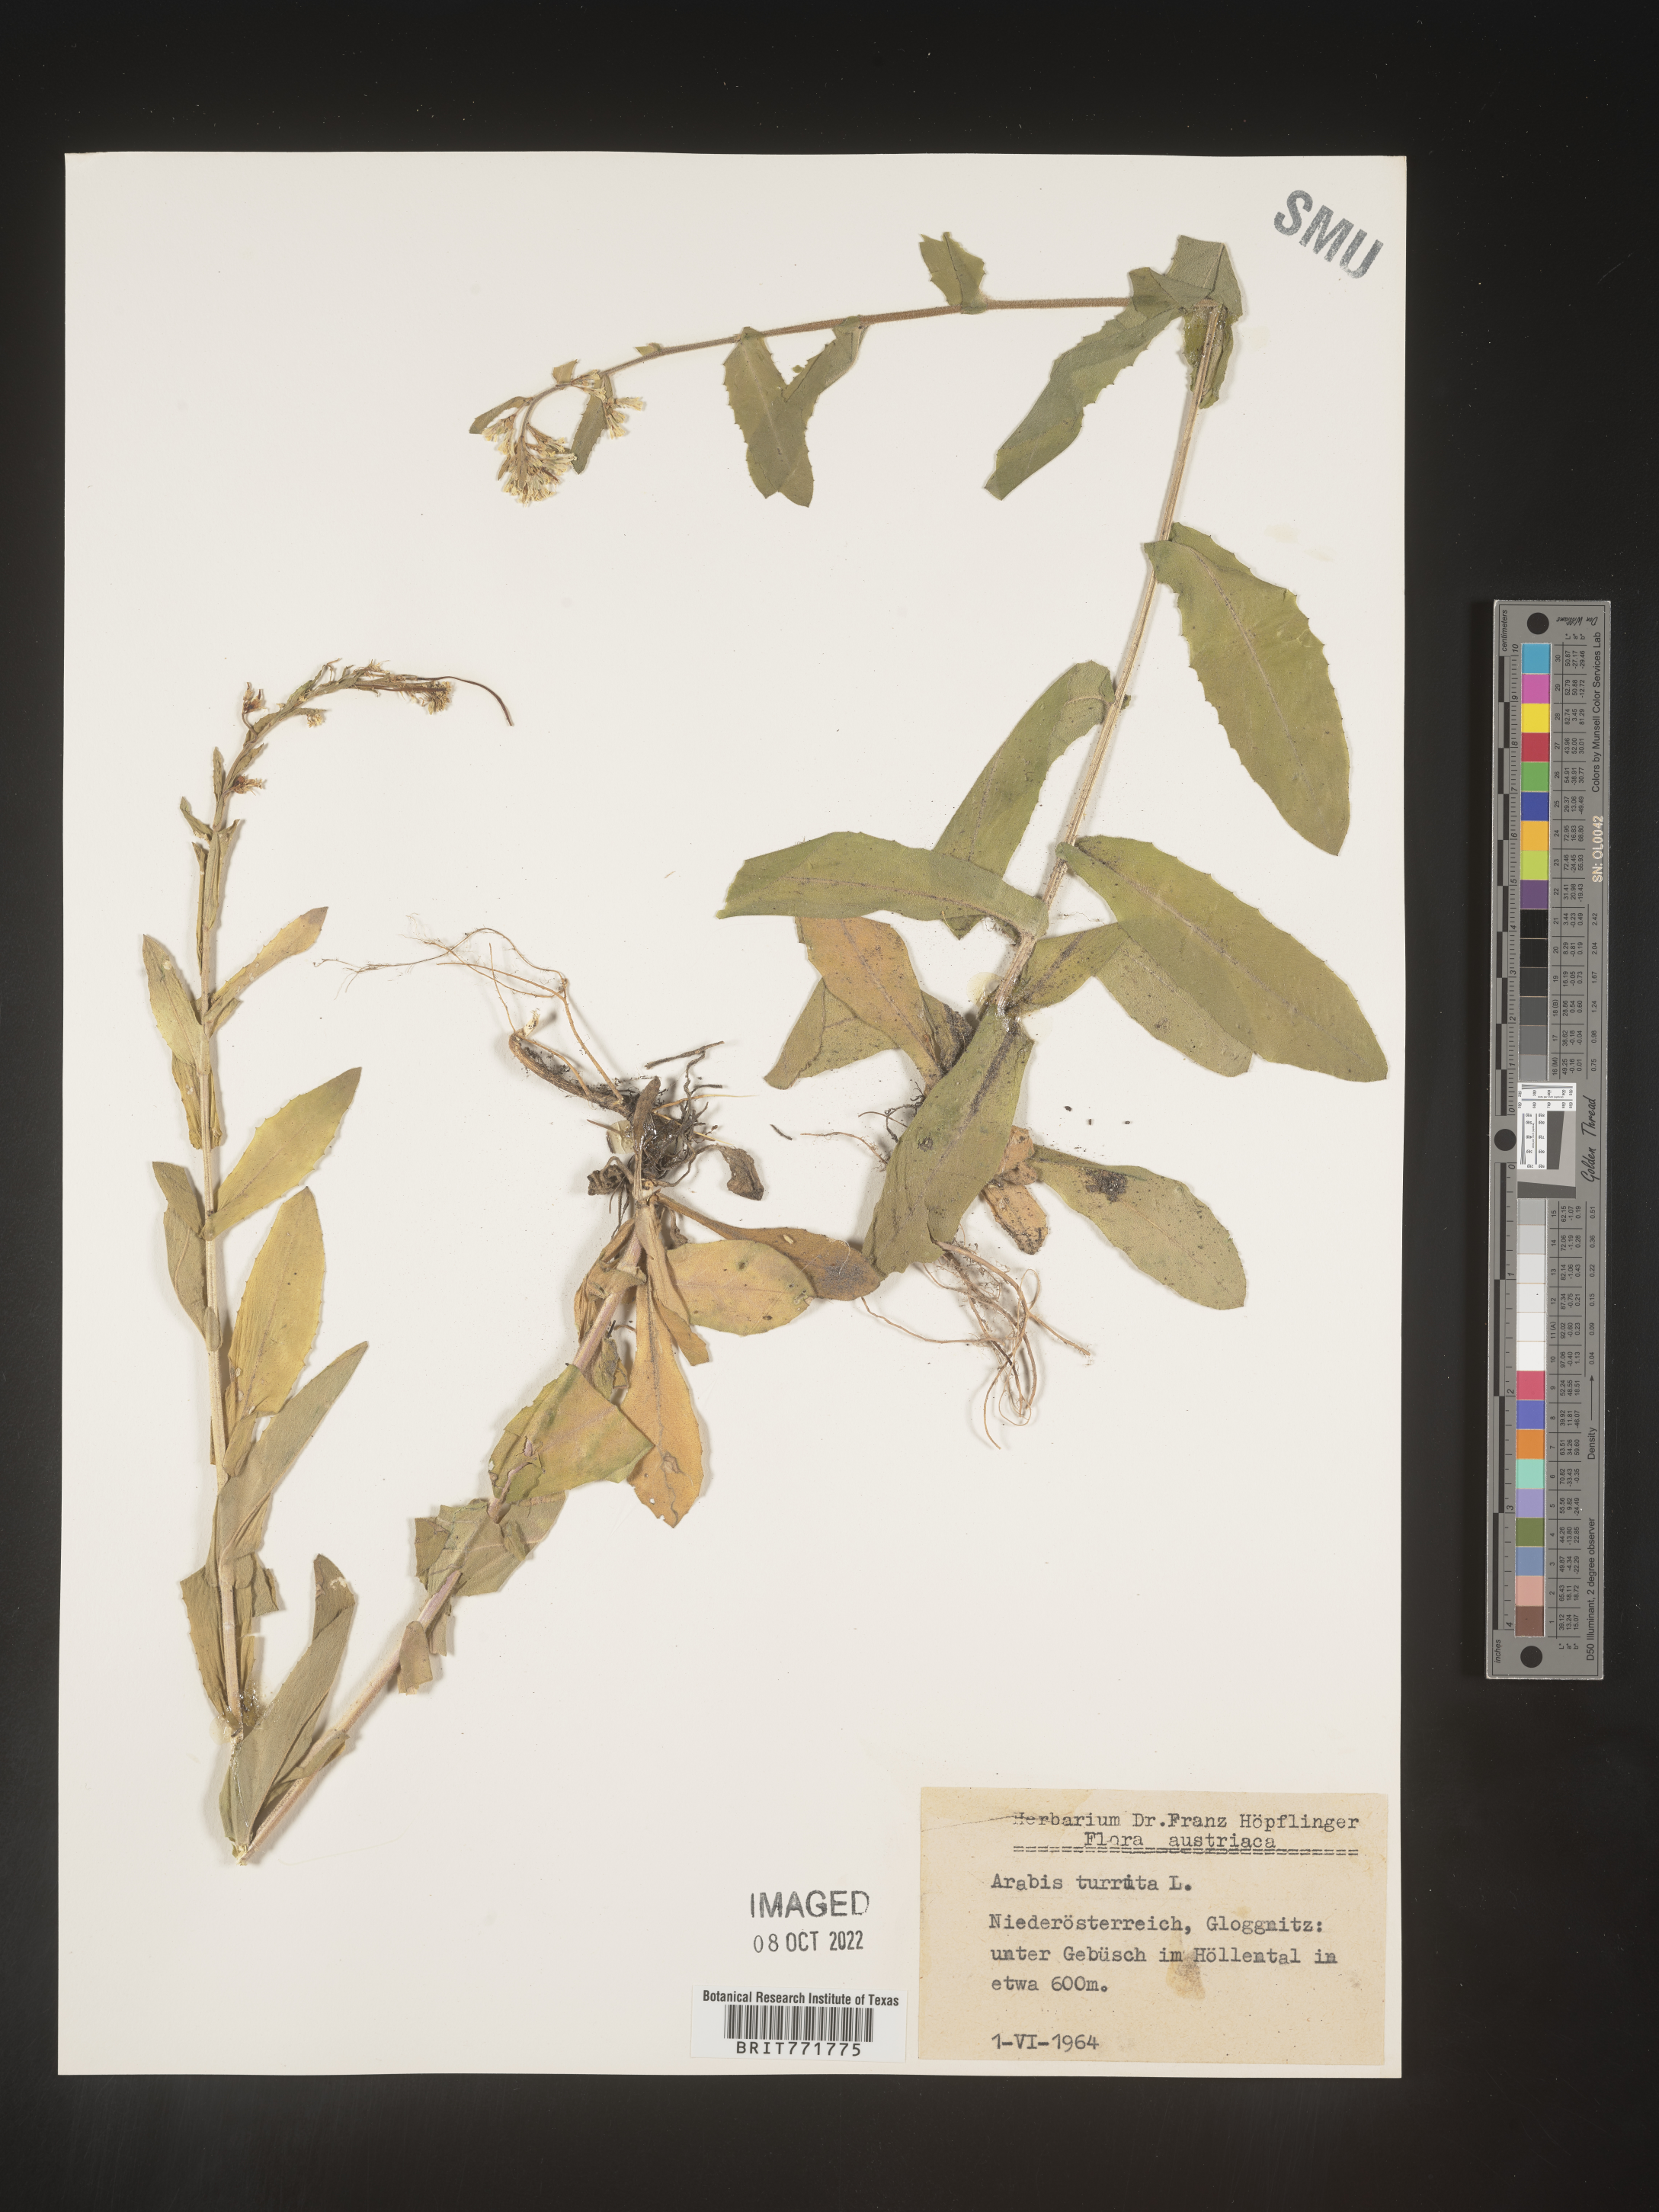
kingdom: Plantae
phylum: Tracheophyta
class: Magnoliopsida
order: Brassicales
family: Brassicaceae
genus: Arabis
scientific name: Arabis
